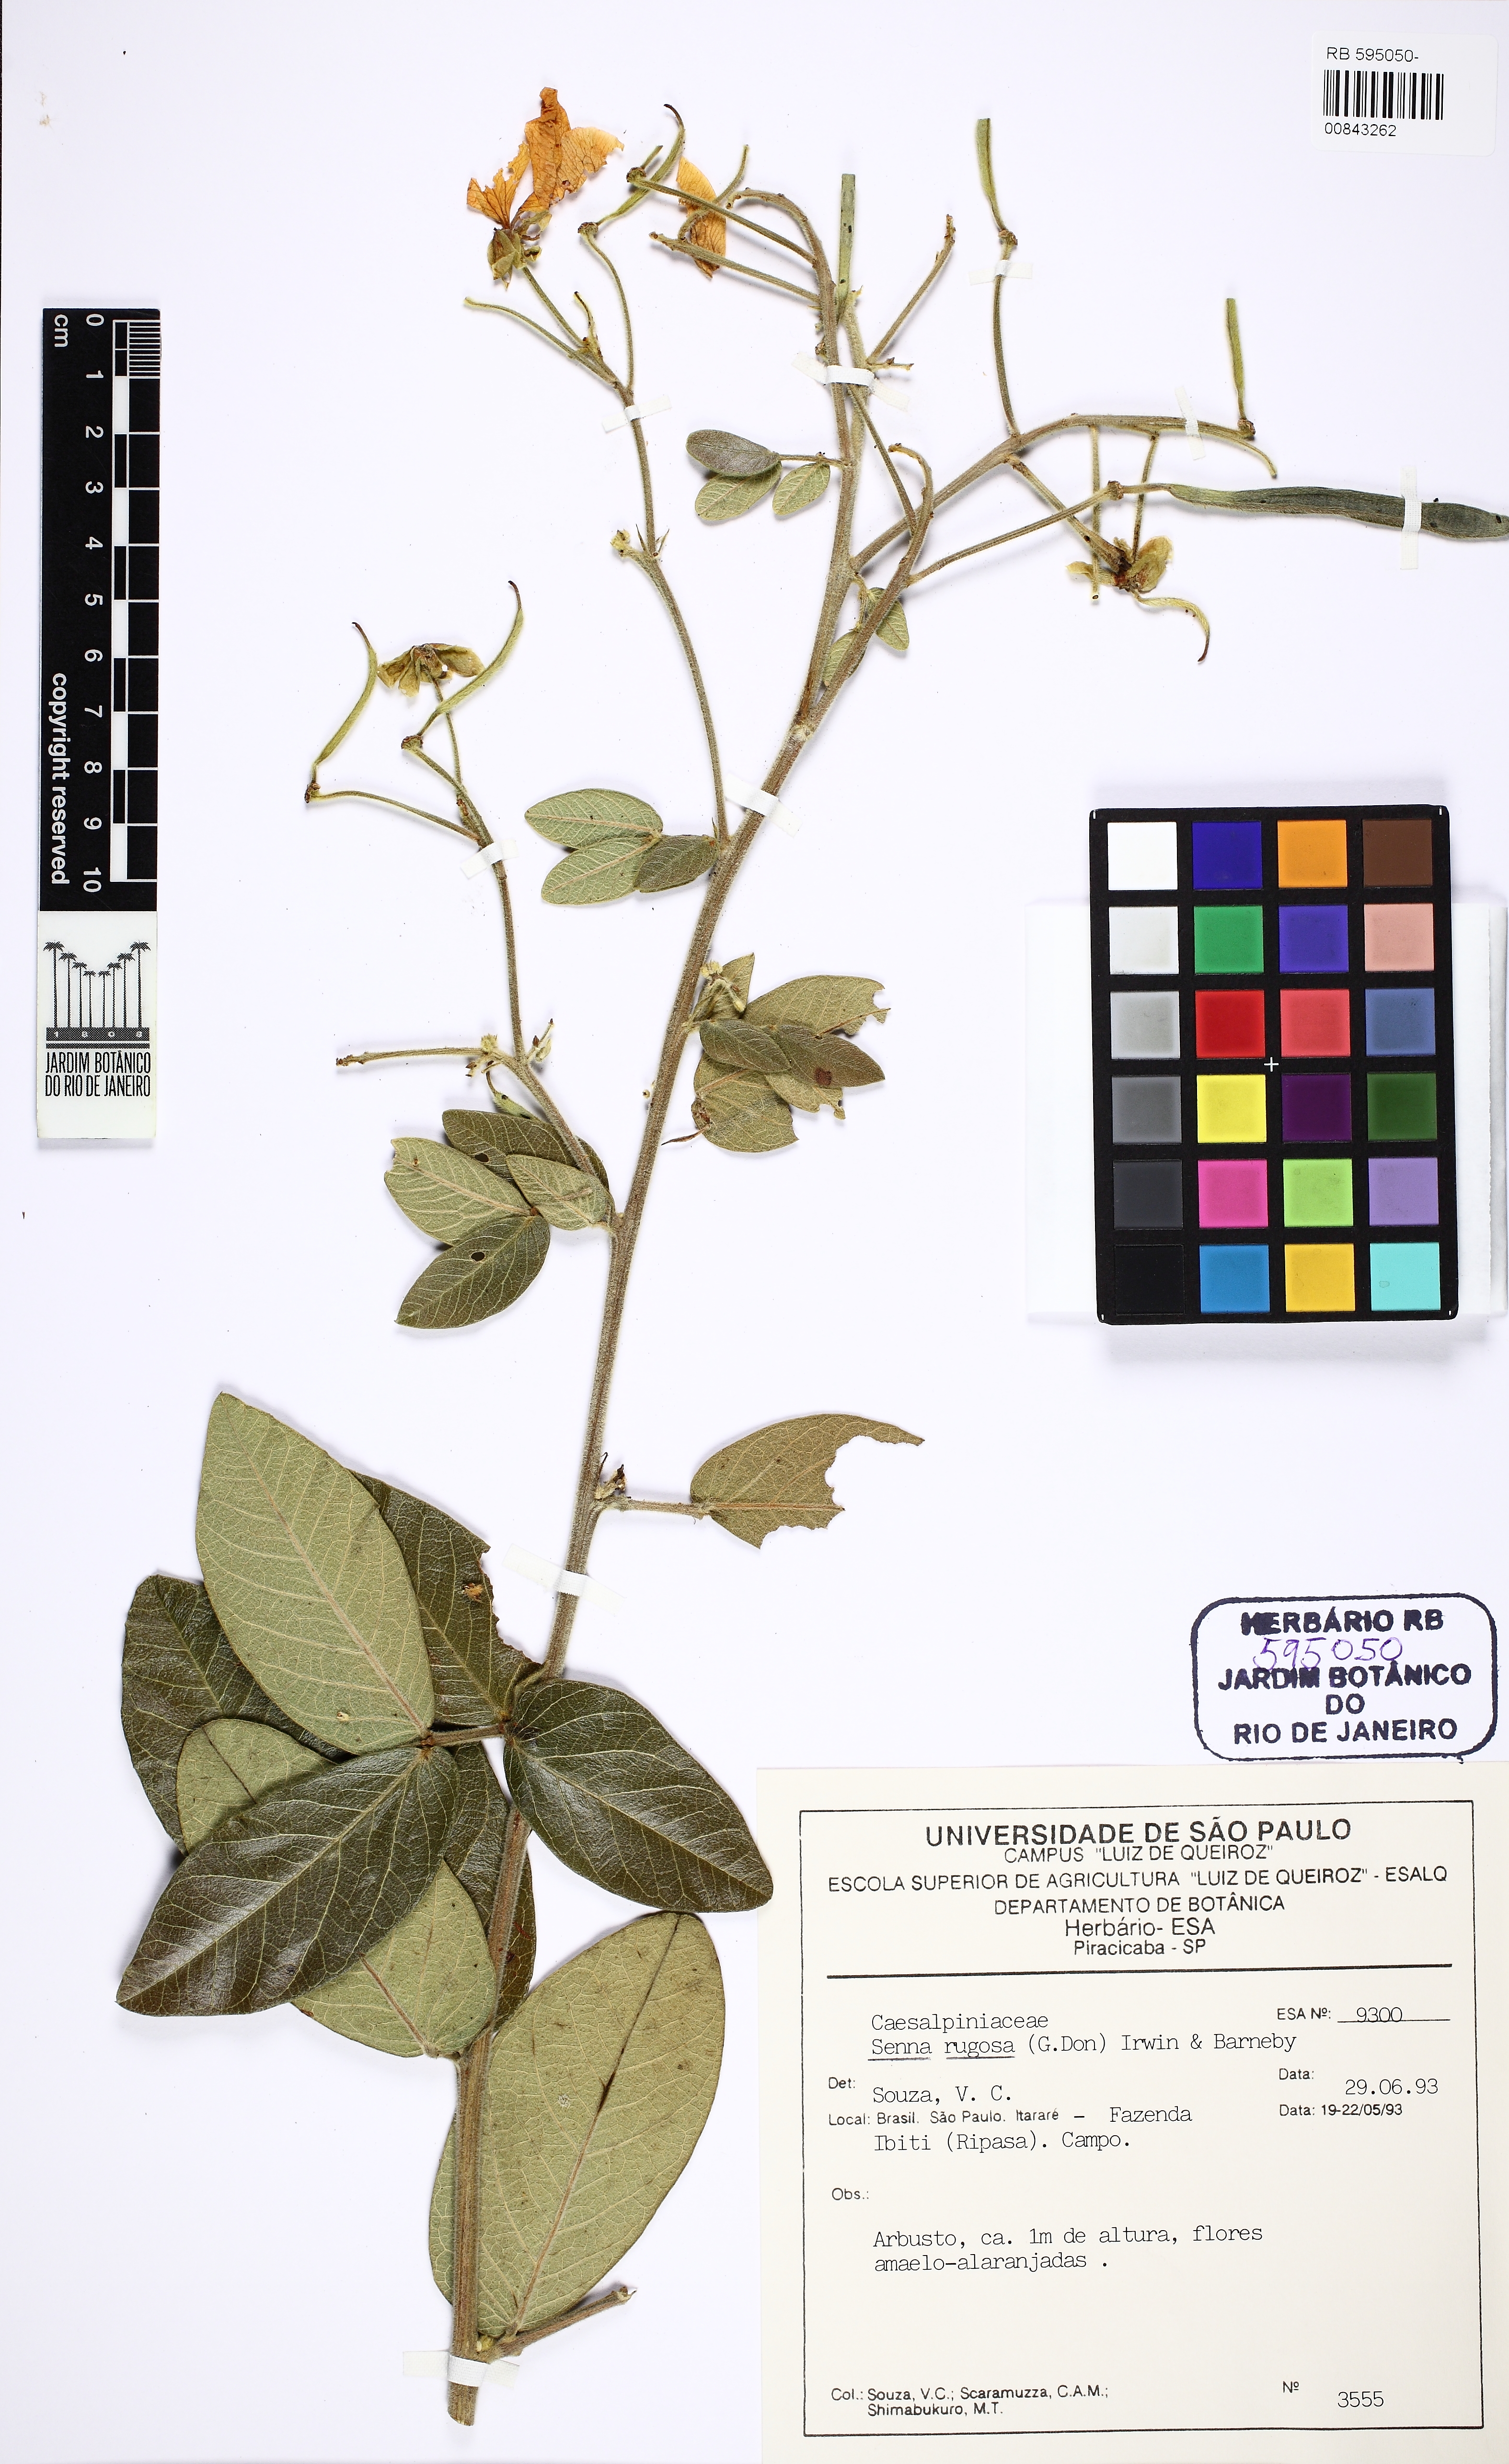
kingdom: Plantae
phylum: Tracheophyta
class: Magnoliopsida
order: Fabales
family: Fabaceae
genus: Senna
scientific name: Senna rugosa
